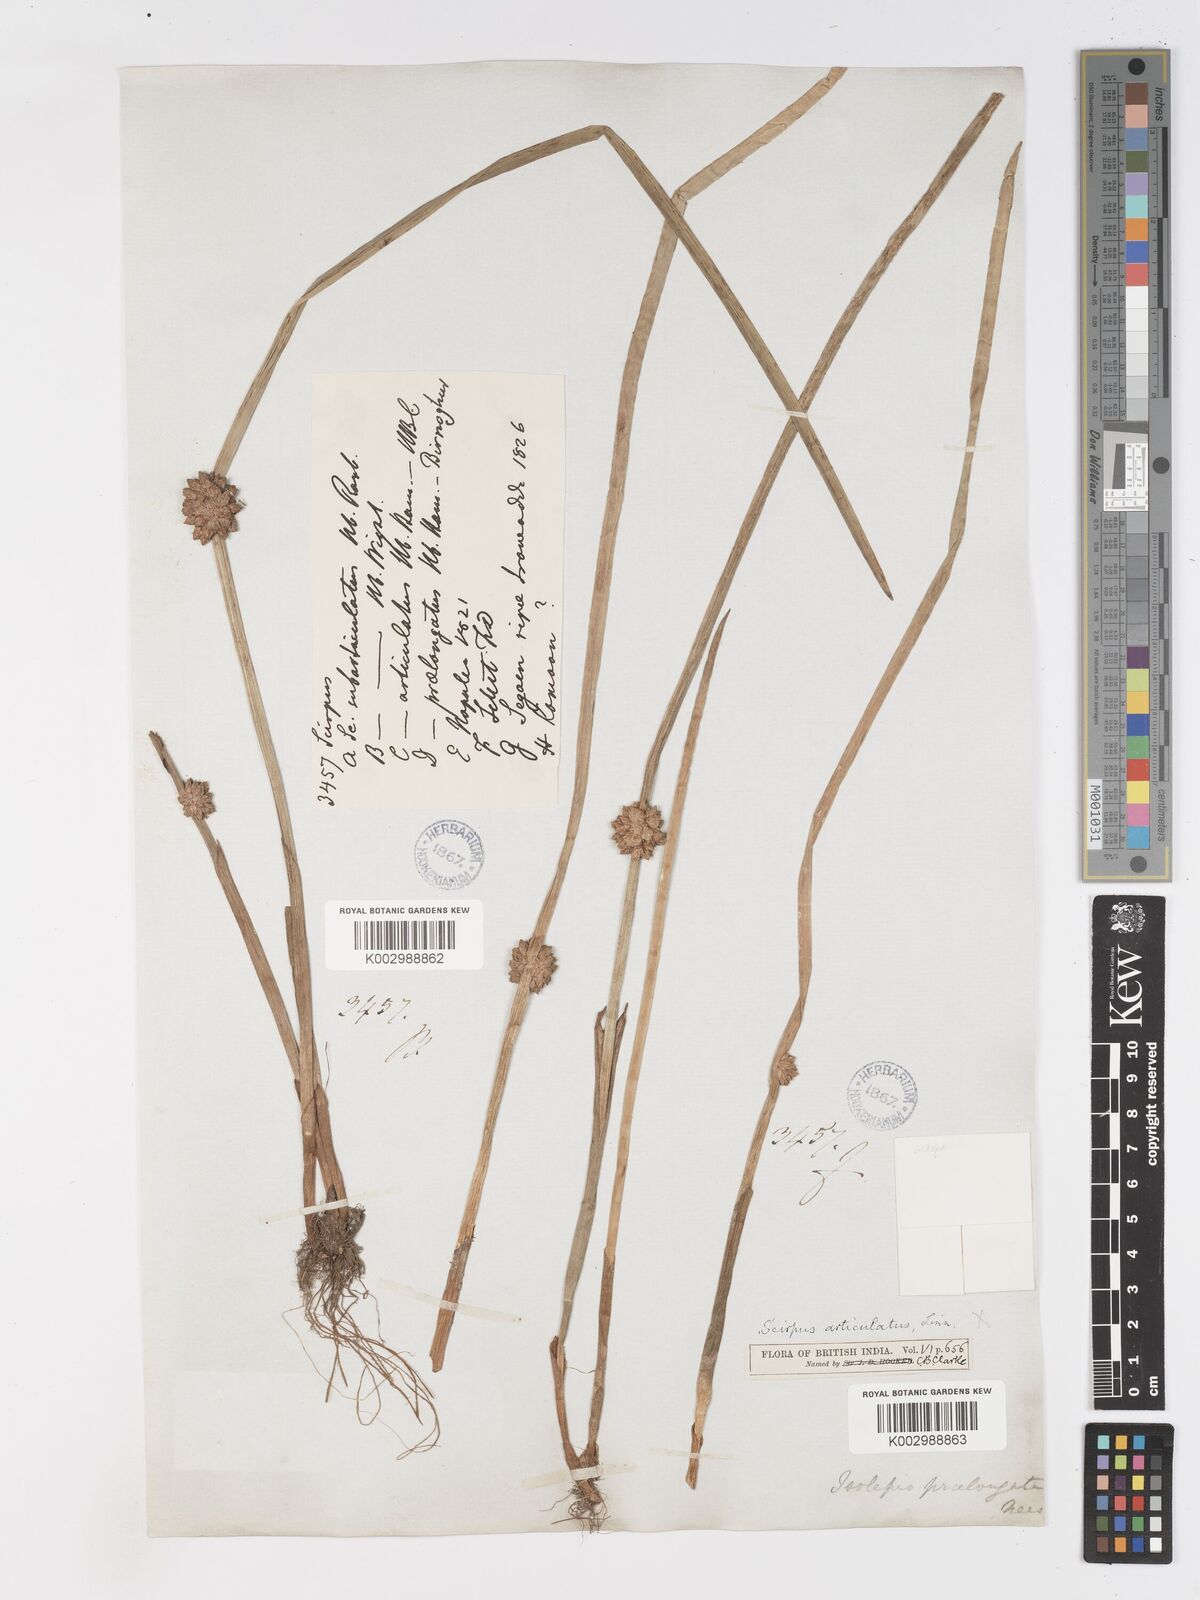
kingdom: Plantae
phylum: Tracheophyta
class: Liliopsida
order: Poales
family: Cyperaceae
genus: Schoenoplectiella
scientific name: Schoenoplectiella praelongata
